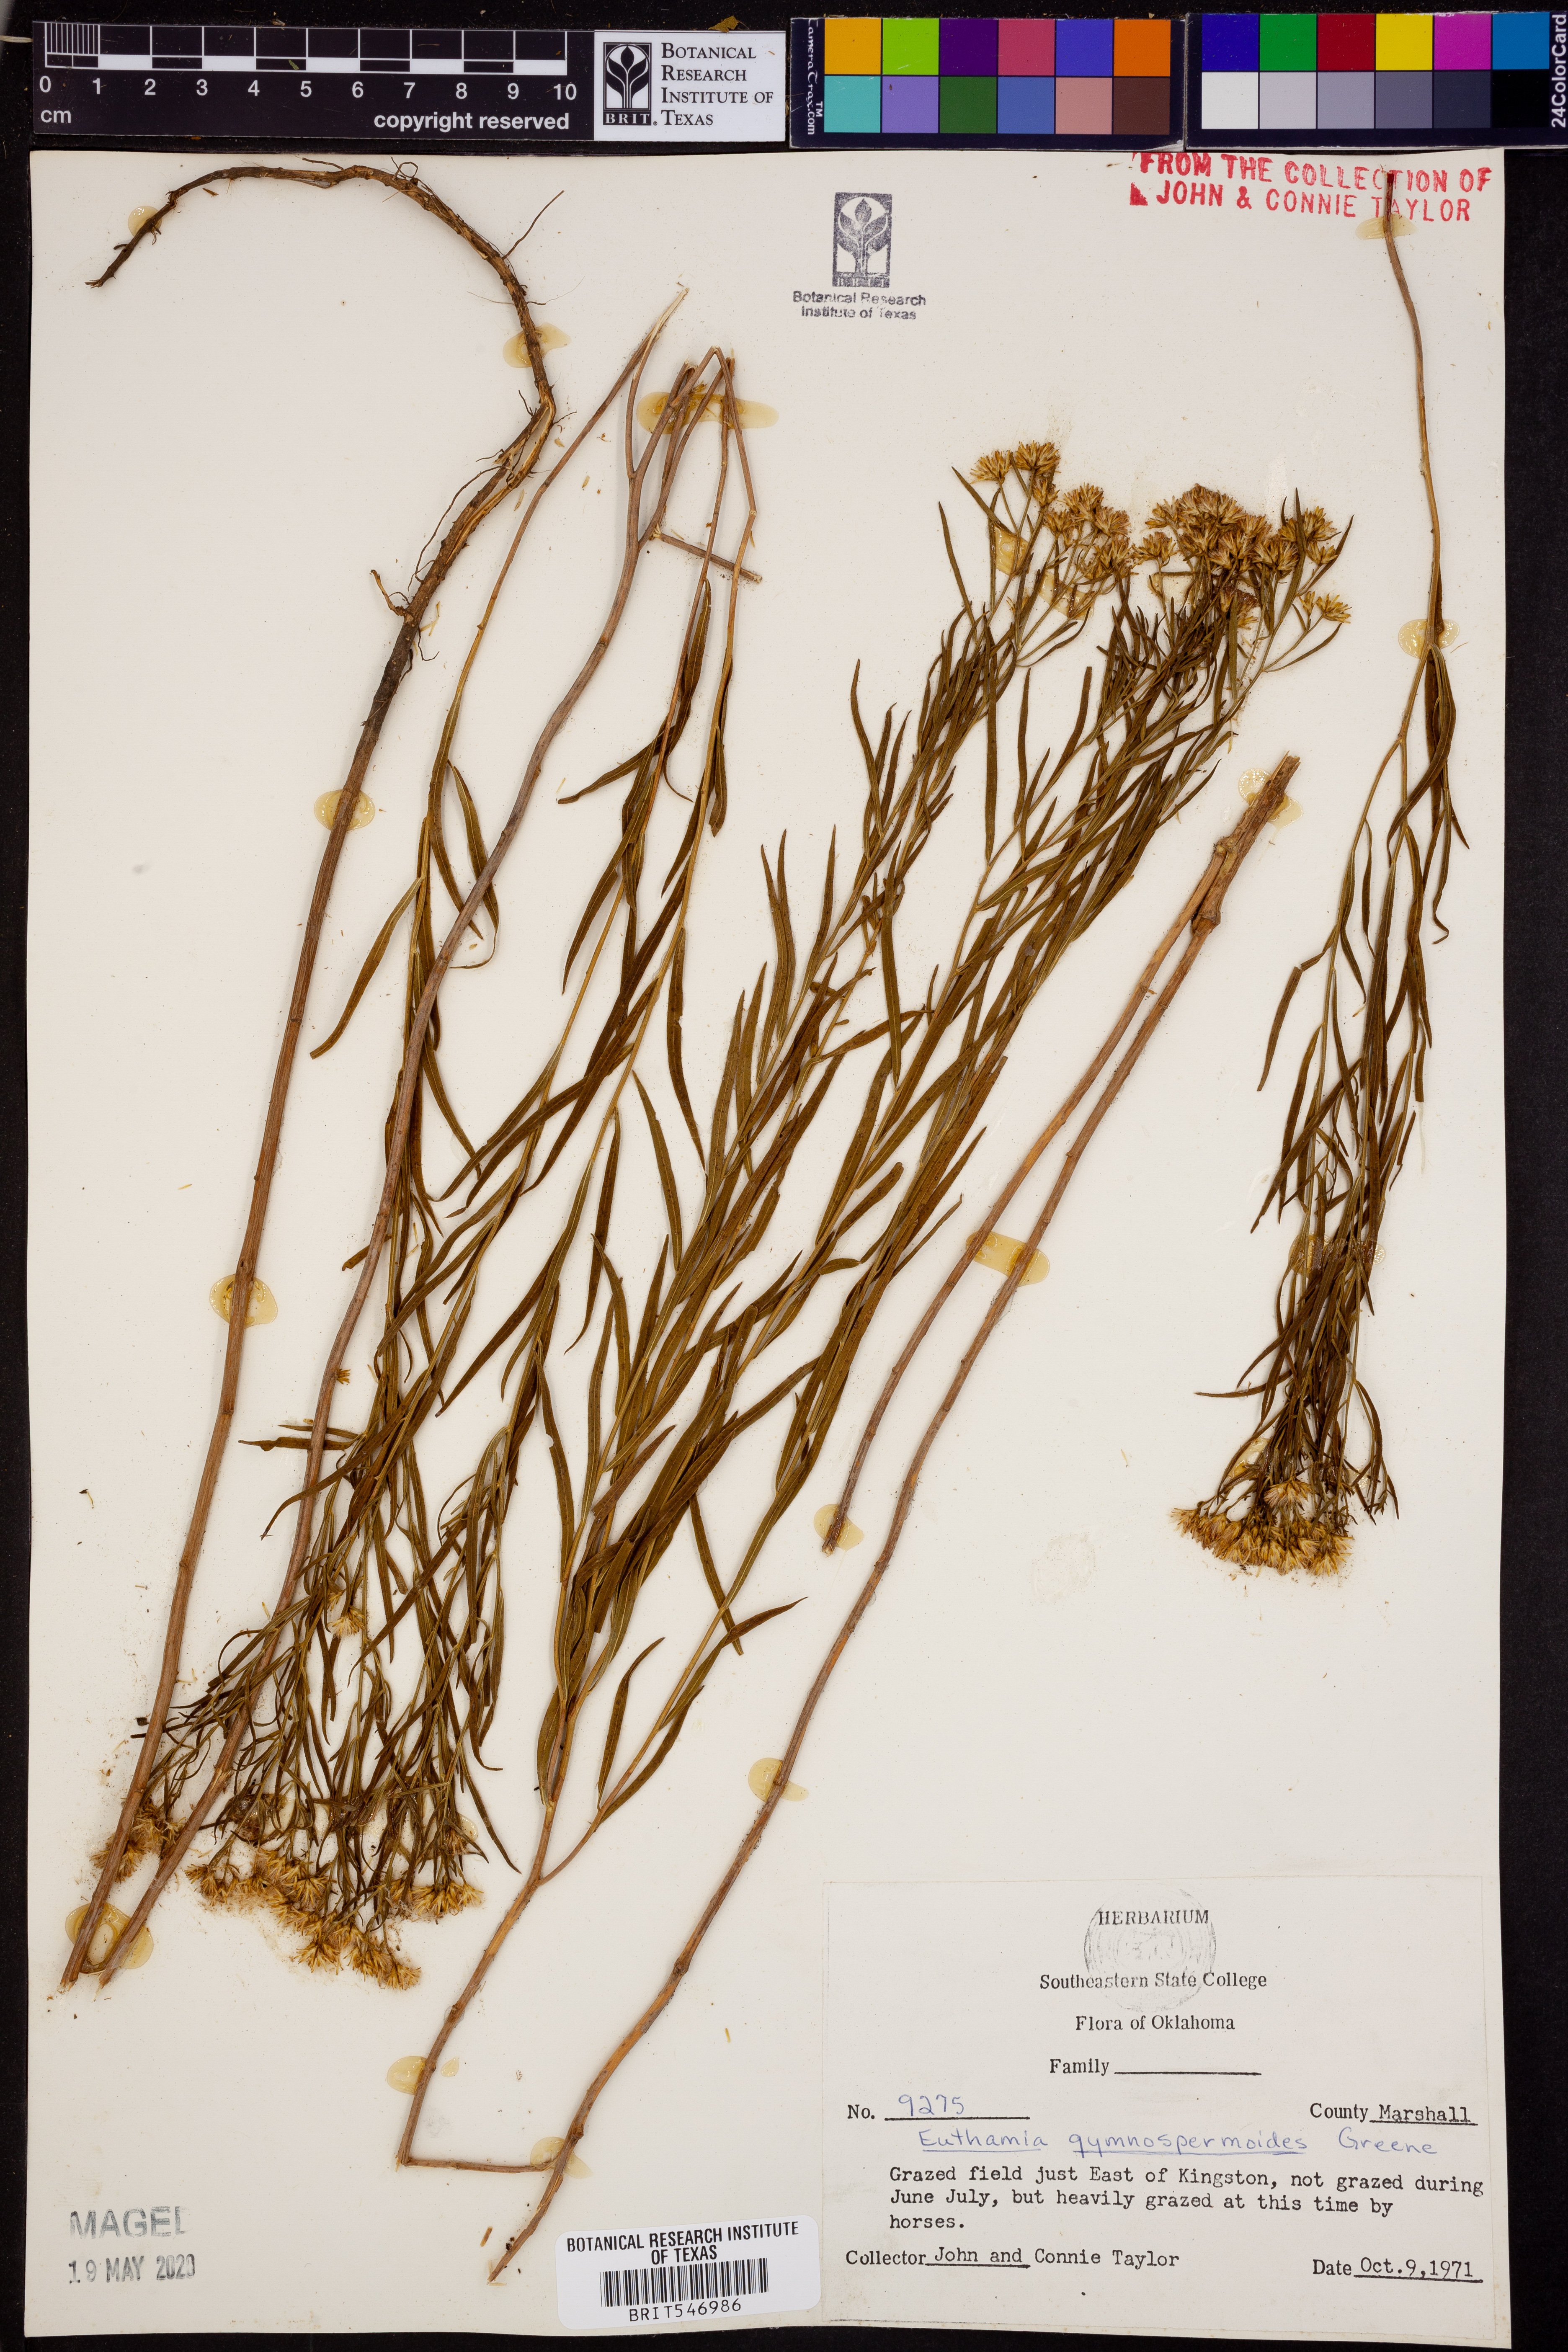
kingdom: Plantae
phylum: Tracheophyta
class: Magnoliopsida
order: Asterales
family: Asteraceae
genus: Euthamia
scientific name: Euthamia gymnospermoides
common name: Great plains goldentop
